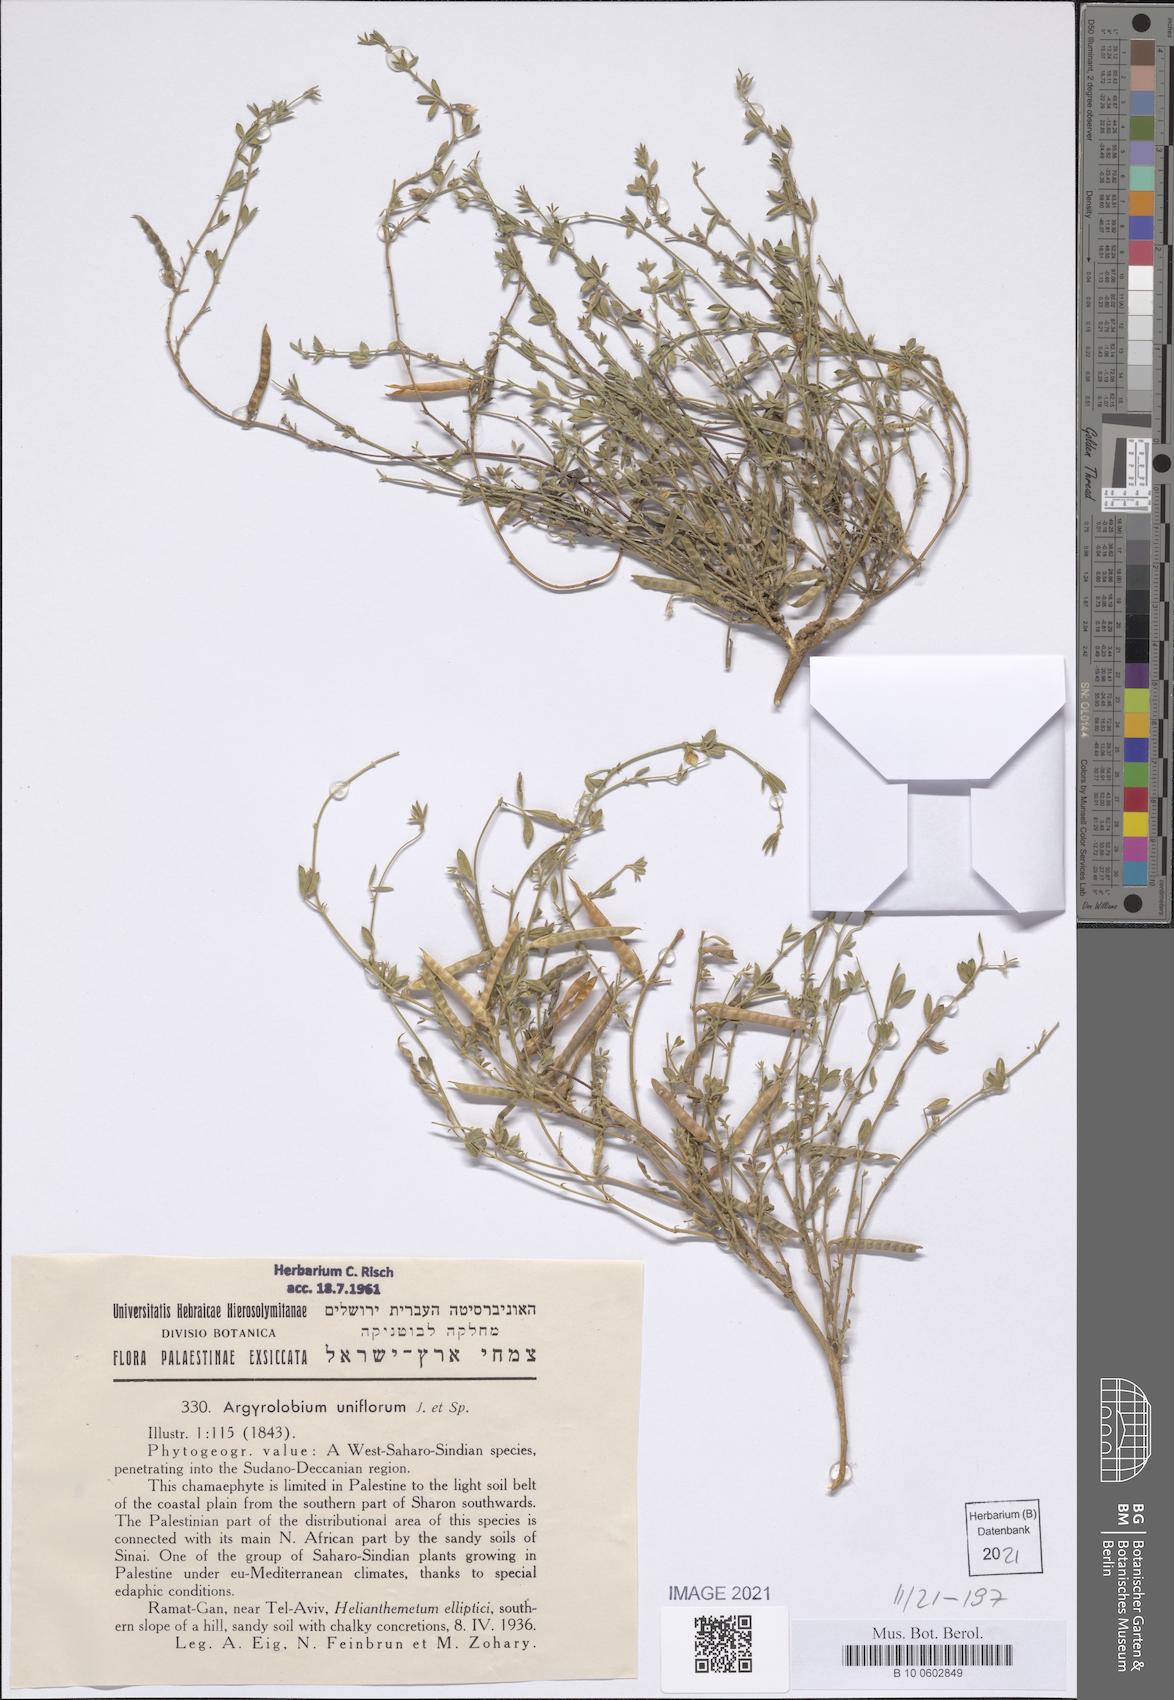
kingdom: Plantae
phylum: Tracheophyta
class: Magnoliopsida
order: Fabales
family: Fabaceae
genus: Argyrolobium
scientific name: Argyrolobium uniflorum
